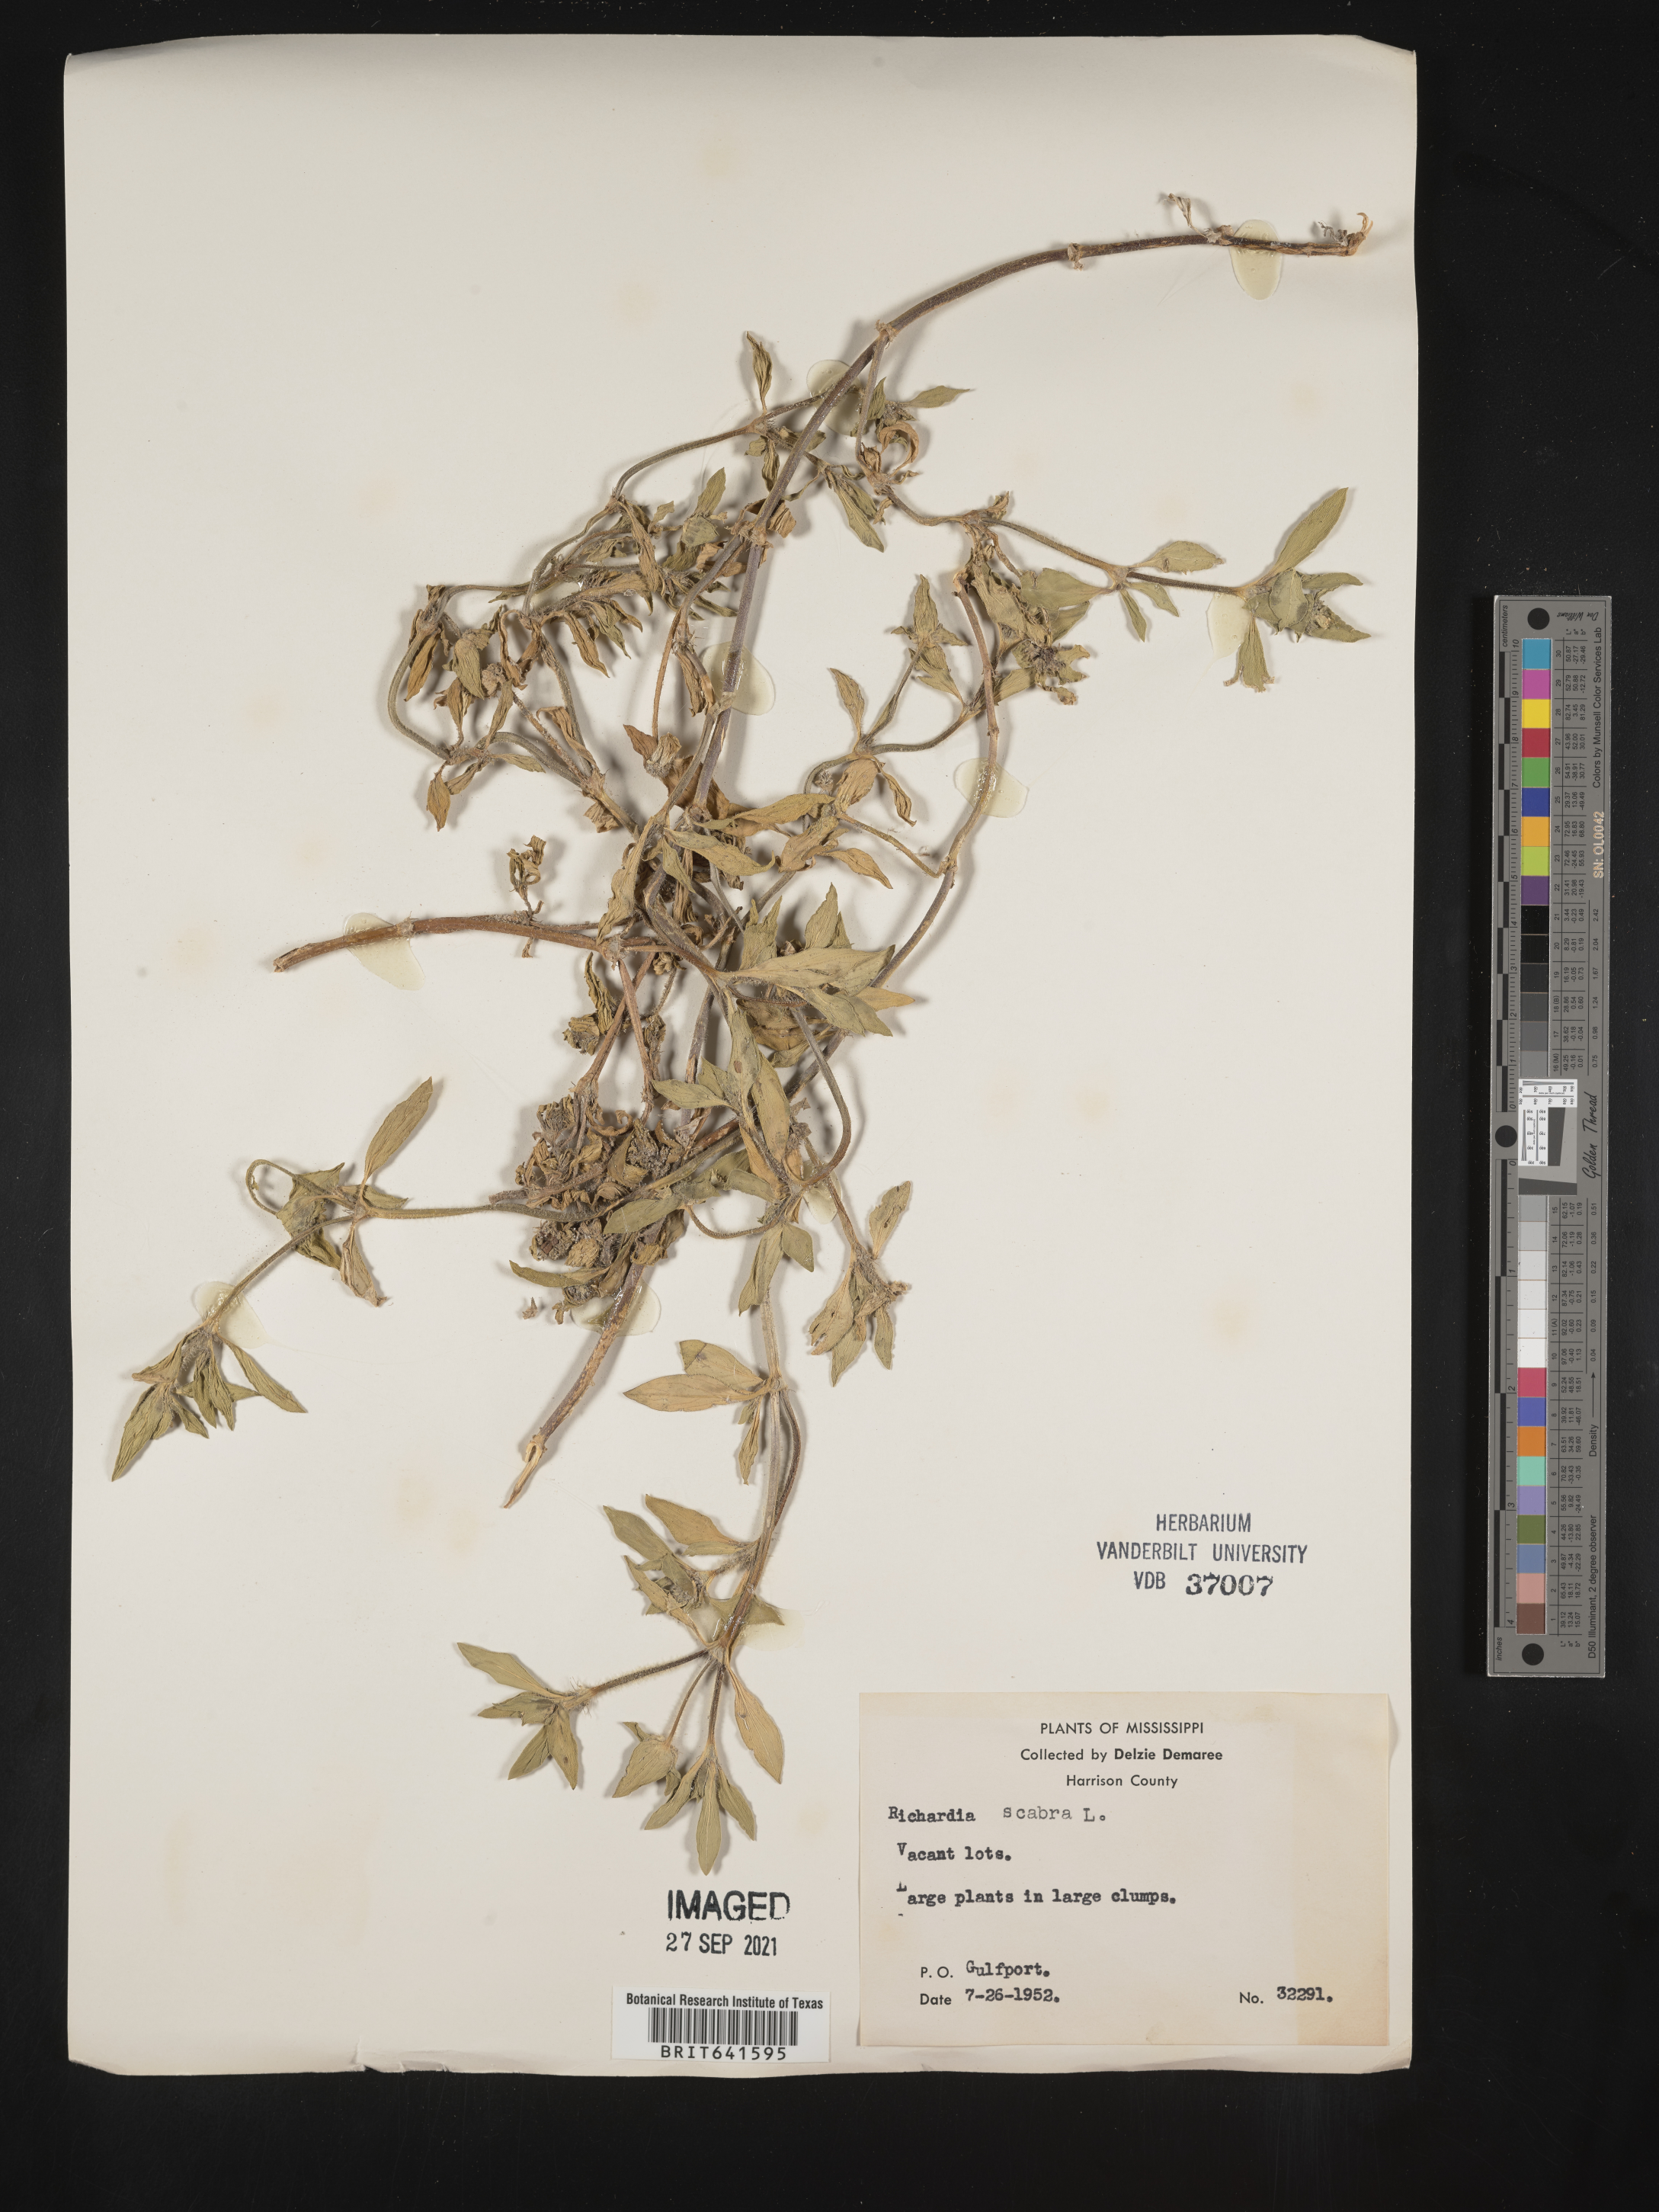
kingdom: Plantae
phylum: Tracheophyta
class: Magnoliopsida
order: Gentianales
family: Rubiaceae
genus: Richardia
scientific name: Richardia scabra
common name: Rough mexican clover
